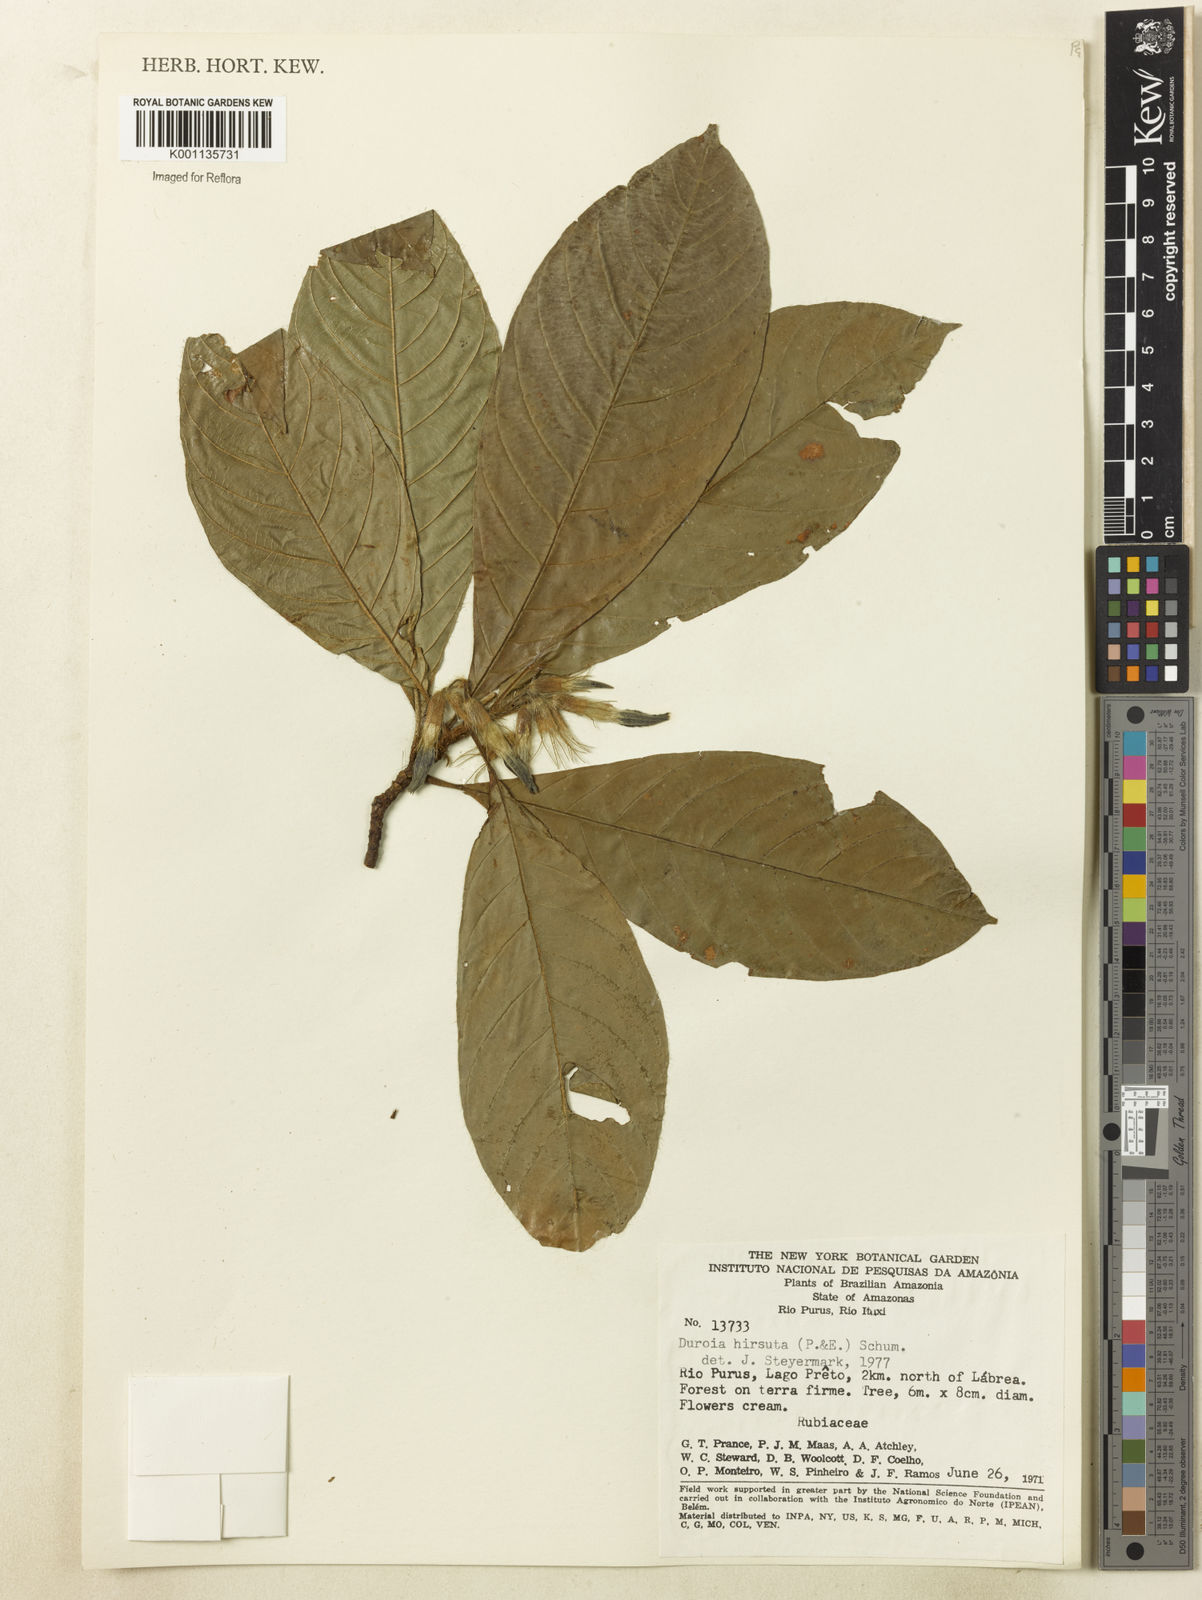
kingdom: Plantae
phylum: Tracheophyta
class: Magnoliopsida
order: Gentianales
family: Rubiaceae
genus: Duroia
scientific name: Duroia hirsuta
